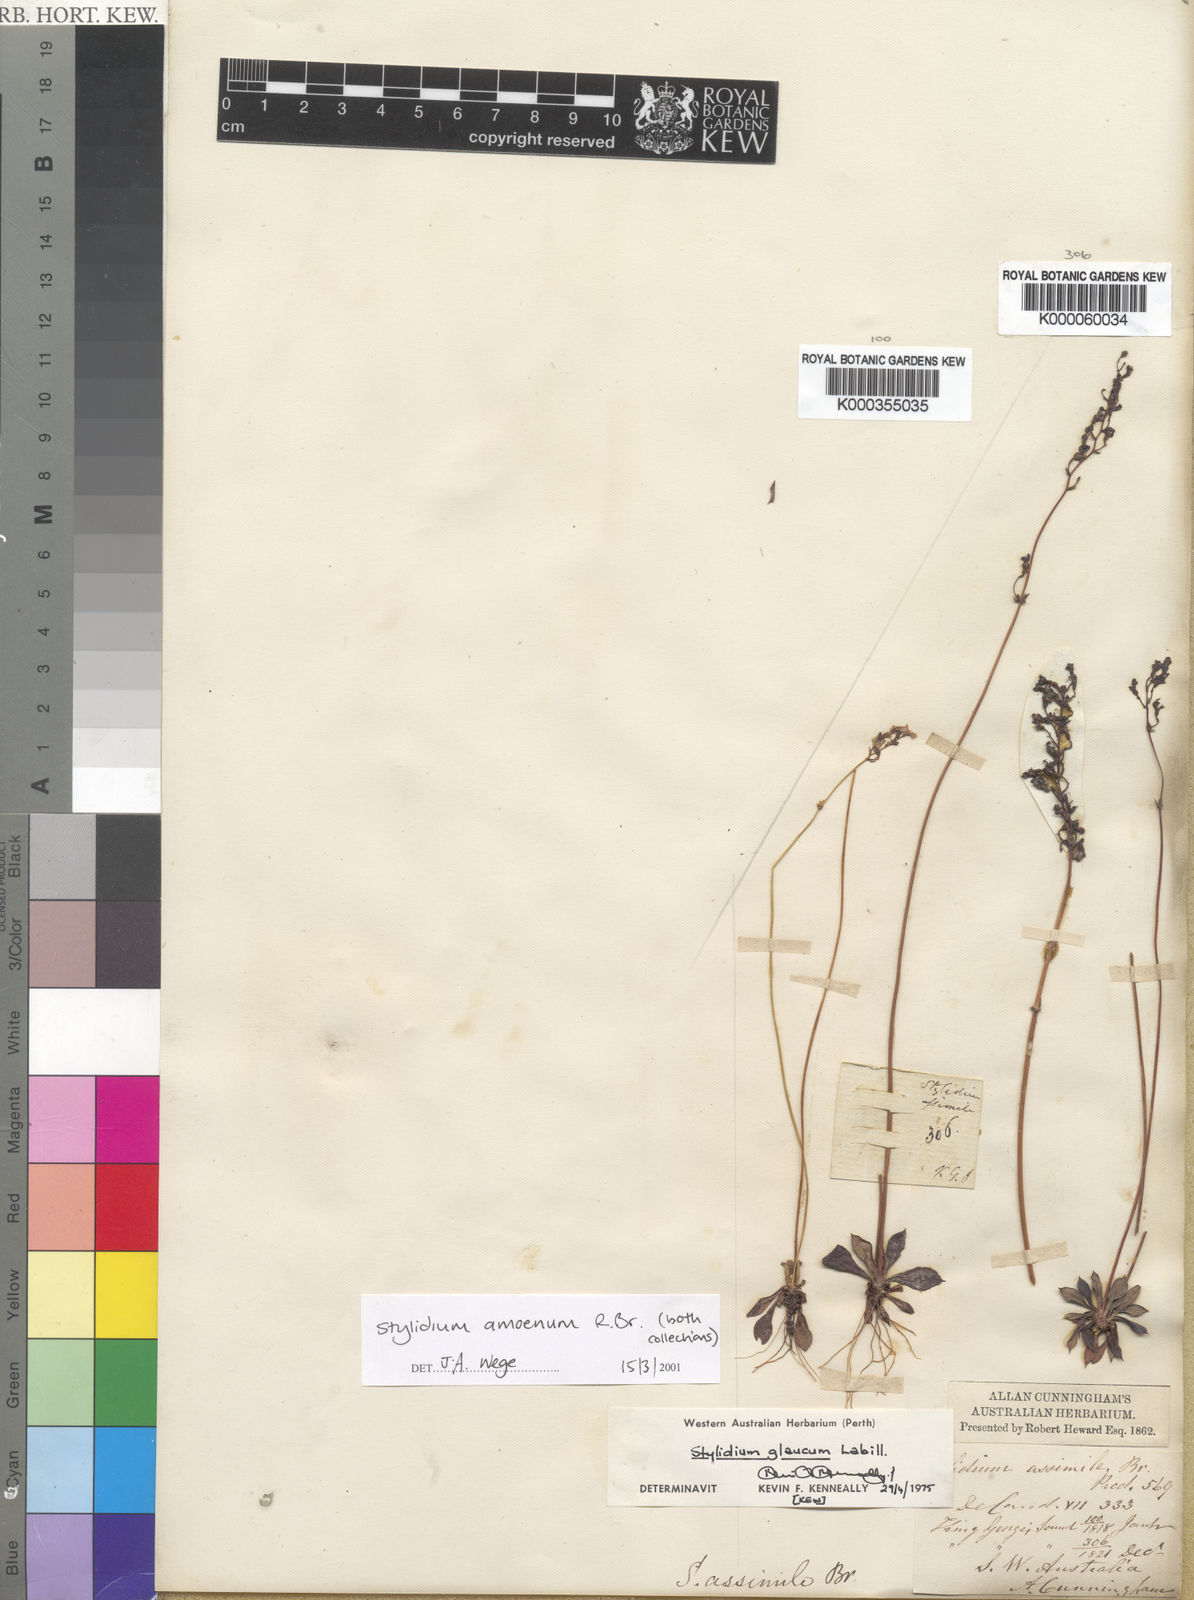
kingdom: Plantae
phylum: Tracheophyta
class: Magnoliopsida
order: Asterales
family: Stylidiaceae
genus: Stylidium
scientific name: Stylidium amoenum
